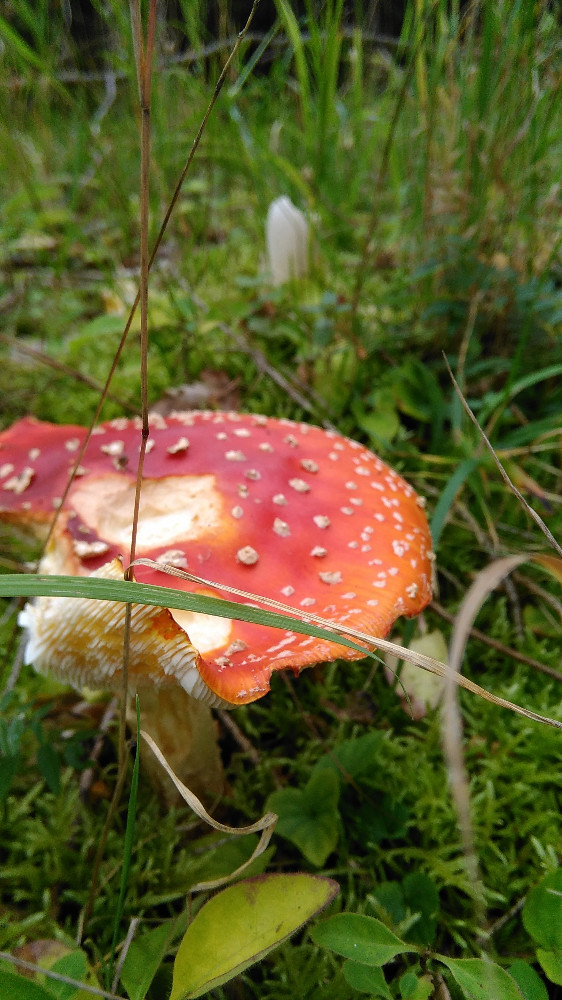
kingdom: Fungi
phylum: Basidiomycota
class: Agaricomycetes
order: Agaricales
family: Amanitaceae
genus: Amanita
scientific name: Amanita muscaria
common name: rød fluesvamp
